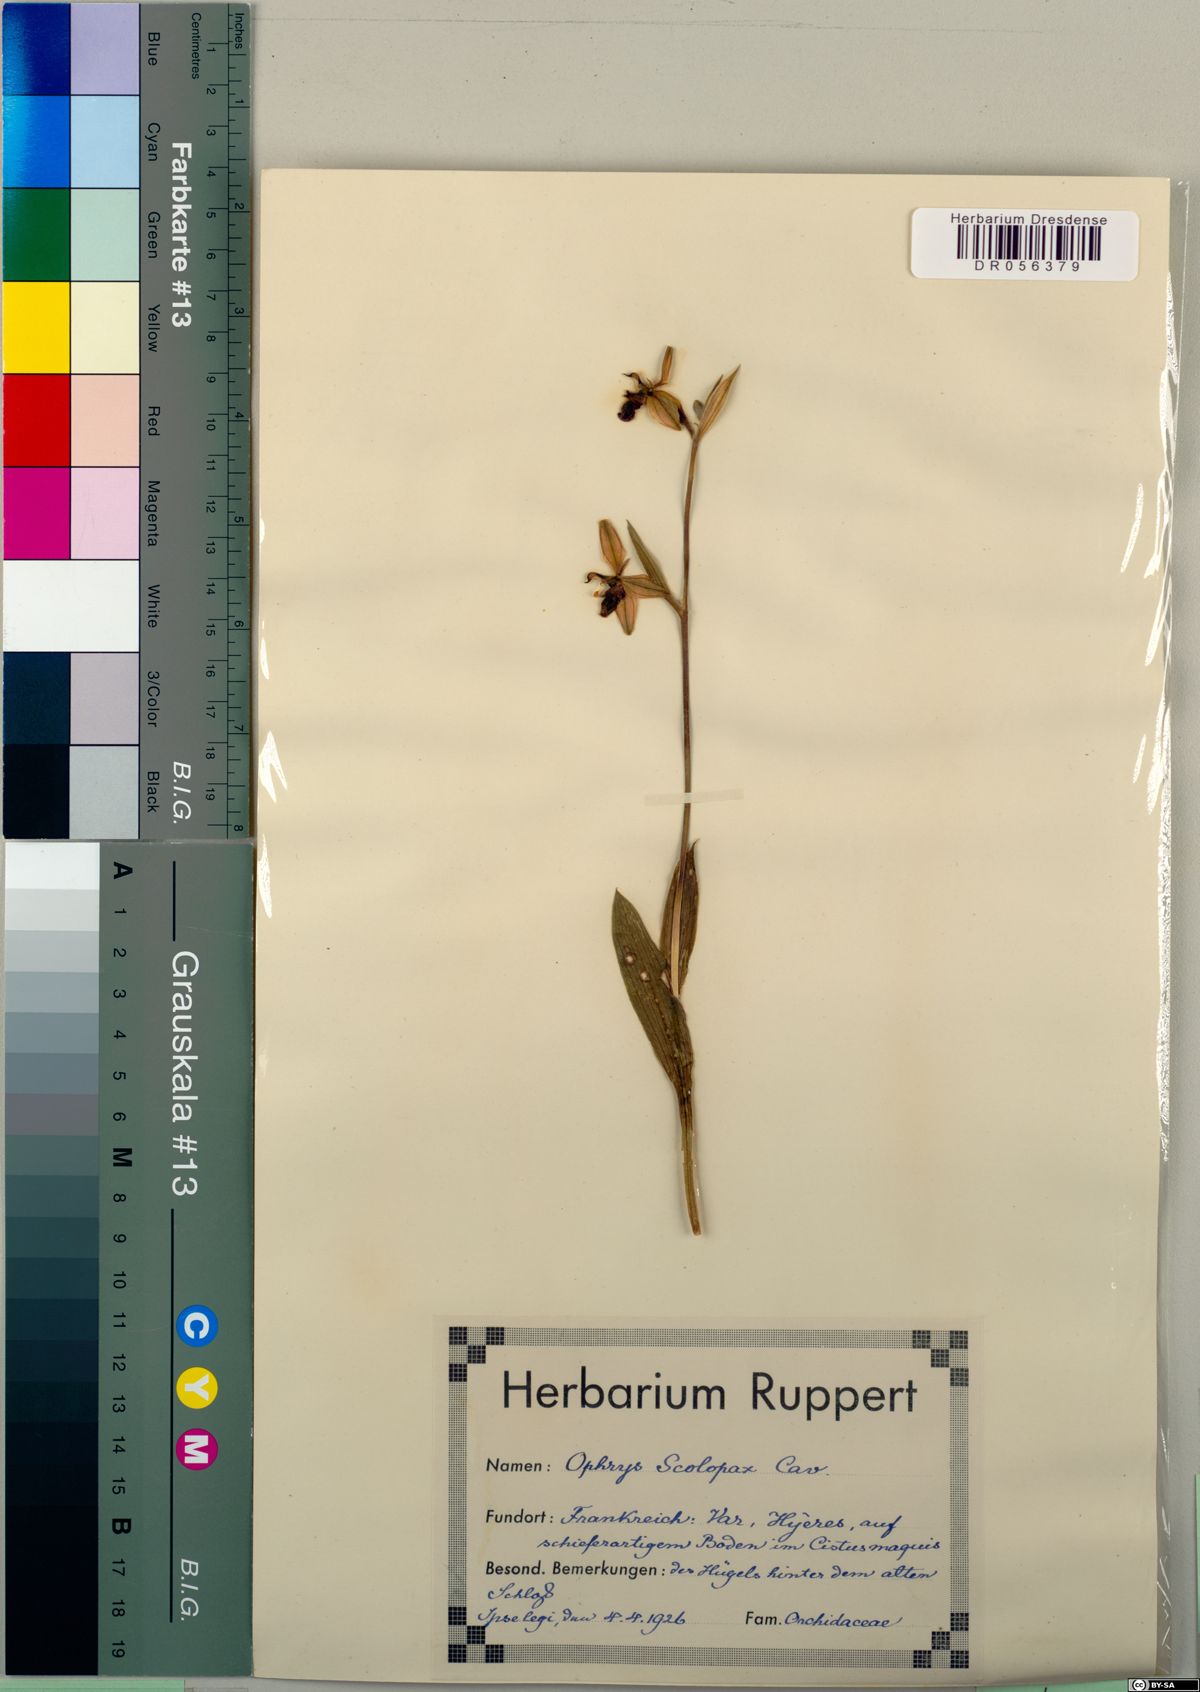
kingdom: Plantae
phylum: Tracheophyta
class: Liliopsida
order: Asparagales
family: Orchidaceae
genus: Ophrys
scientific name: Ophrys scolopax
